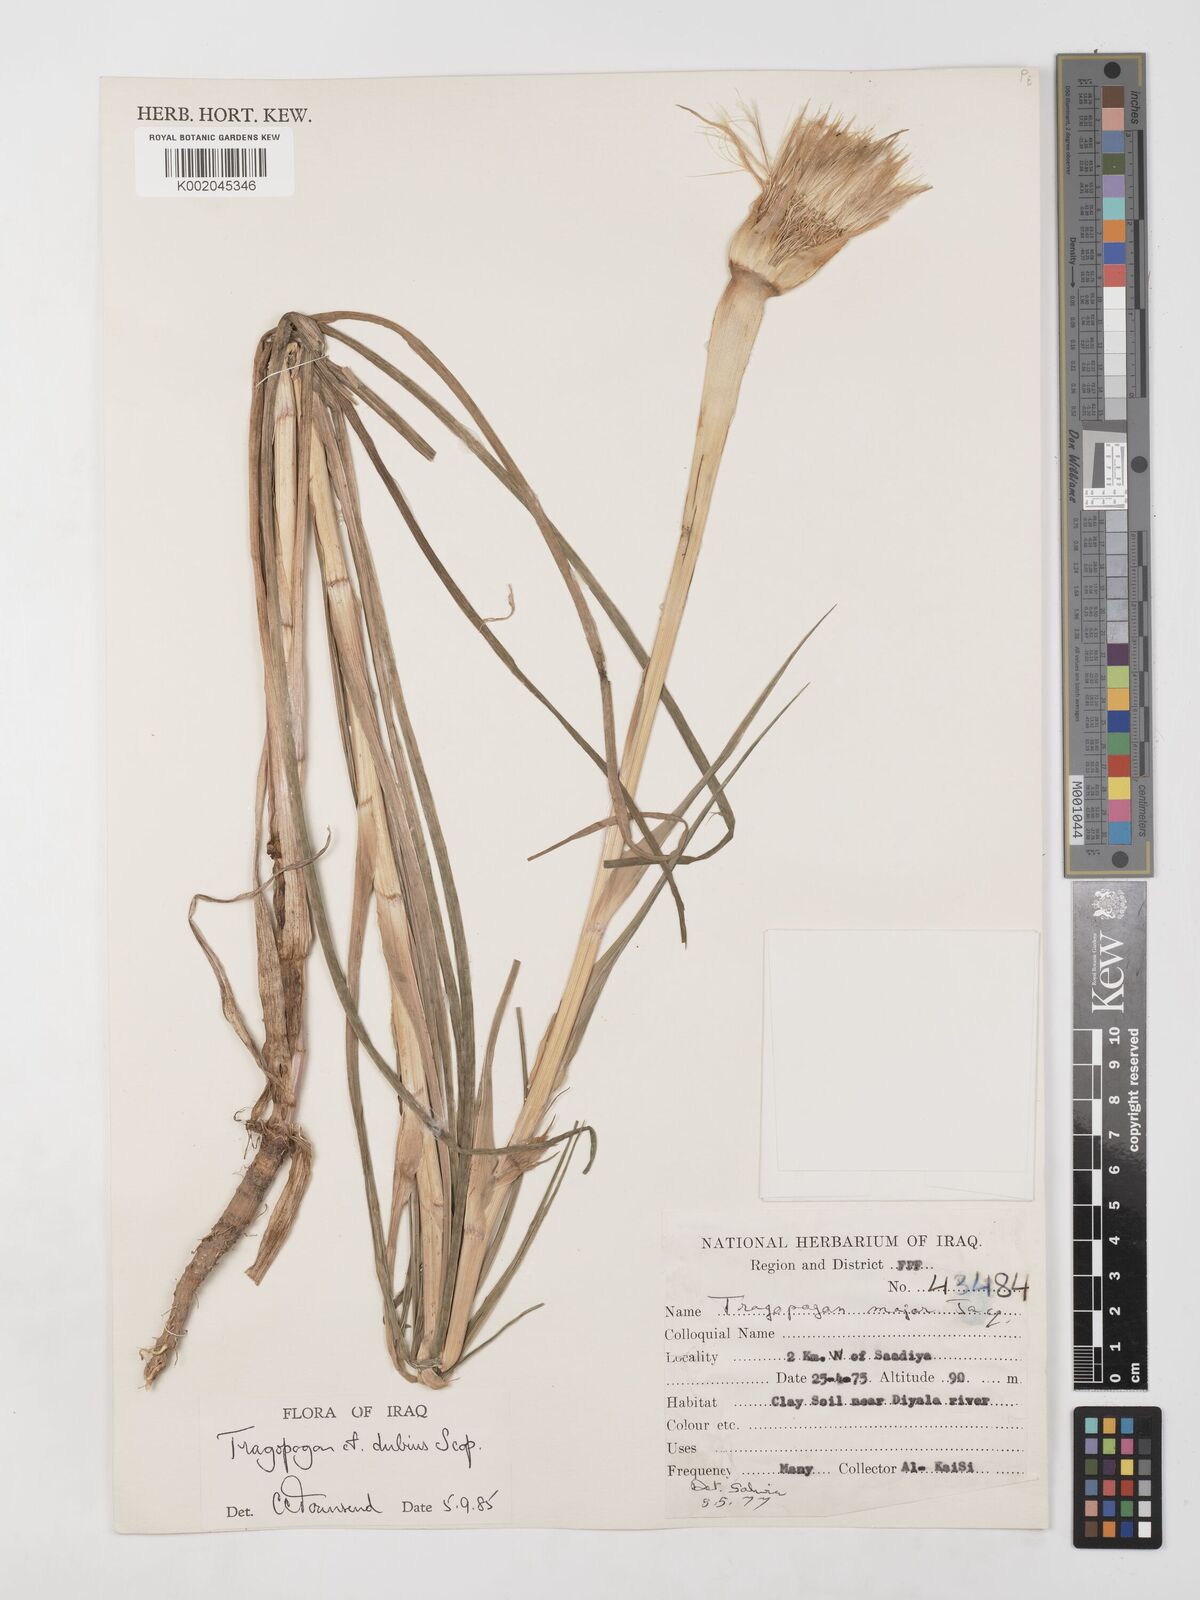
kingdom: Plantae
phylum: Tracheophyta
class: Magnoliopsida
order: Asterales
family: Asteraceae
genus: Tragopogon
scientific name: Tragopogon dubius
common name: Yellow salsify
